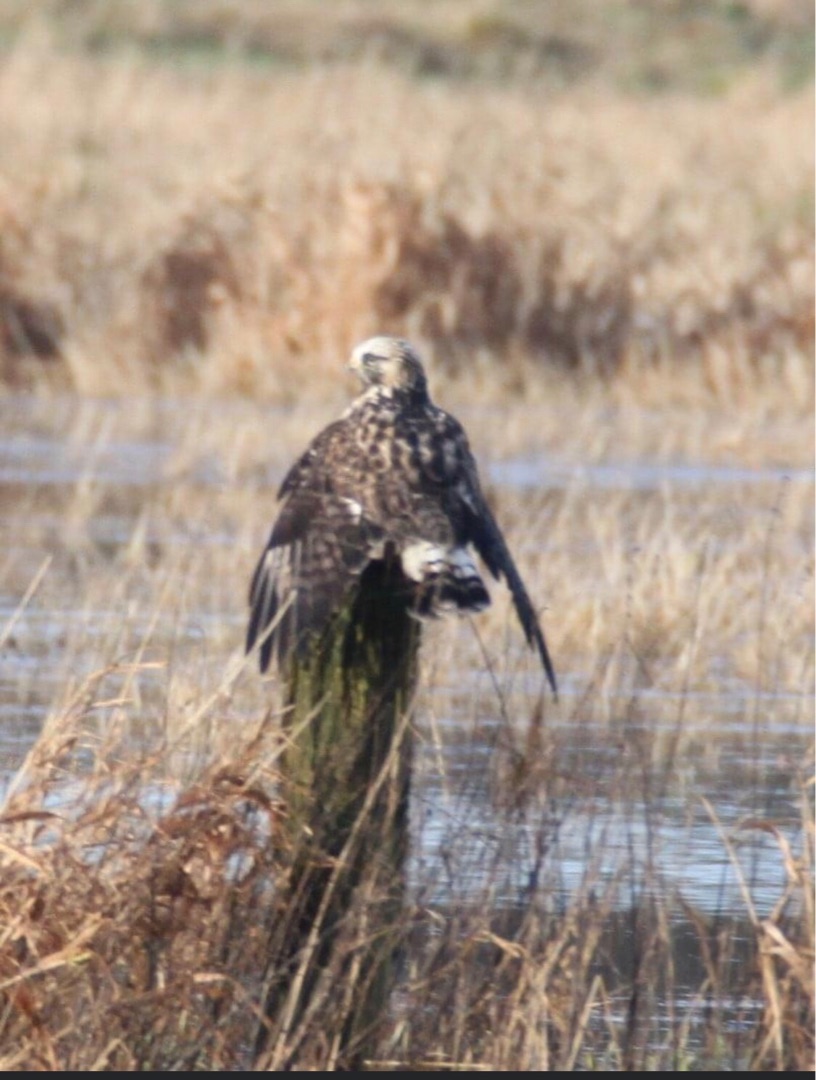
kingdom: Animalia
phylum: Chordata
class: Aves
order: Accipitriformes
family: Accipitridae
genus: Buteo
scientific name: Buteo lagopus
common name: Fjeldvåge
